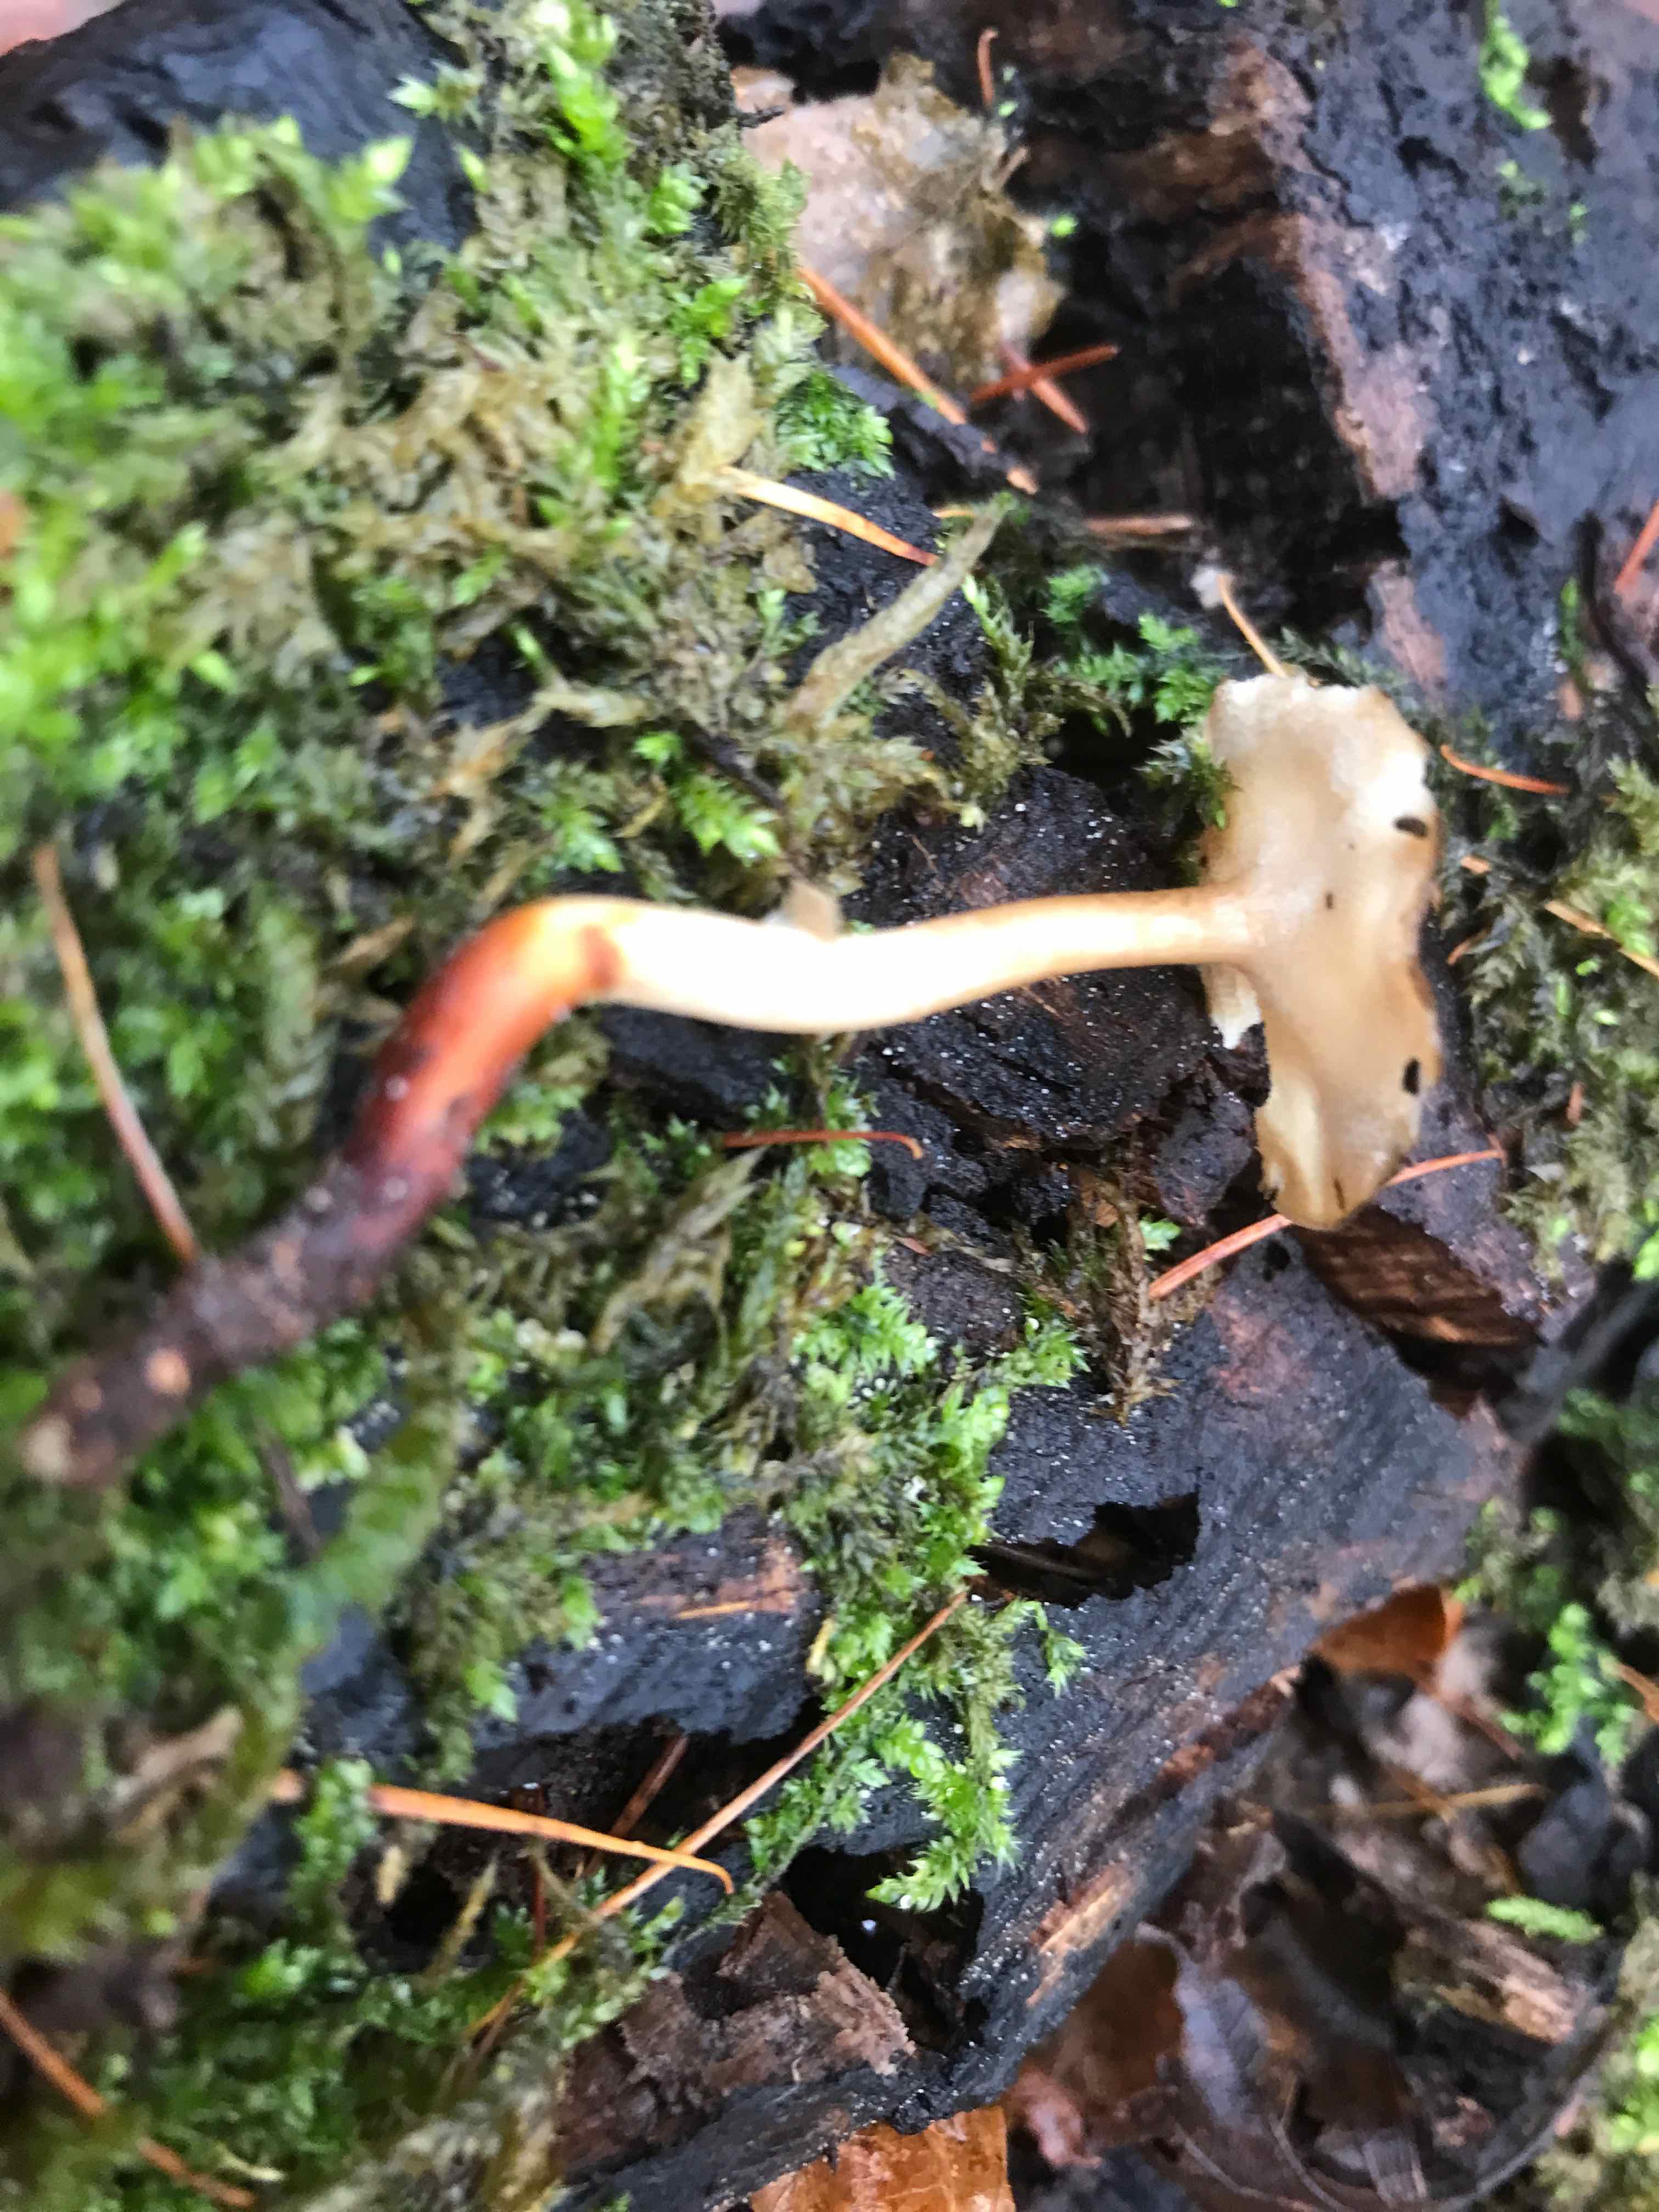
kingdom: Fungi
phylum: Basidiomycota
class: Agaricomycetes
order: Polyporales
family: Polyporaceae
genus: Lentinus
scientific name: Lentinus brumalis
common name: vinter-stilkporesvamp
